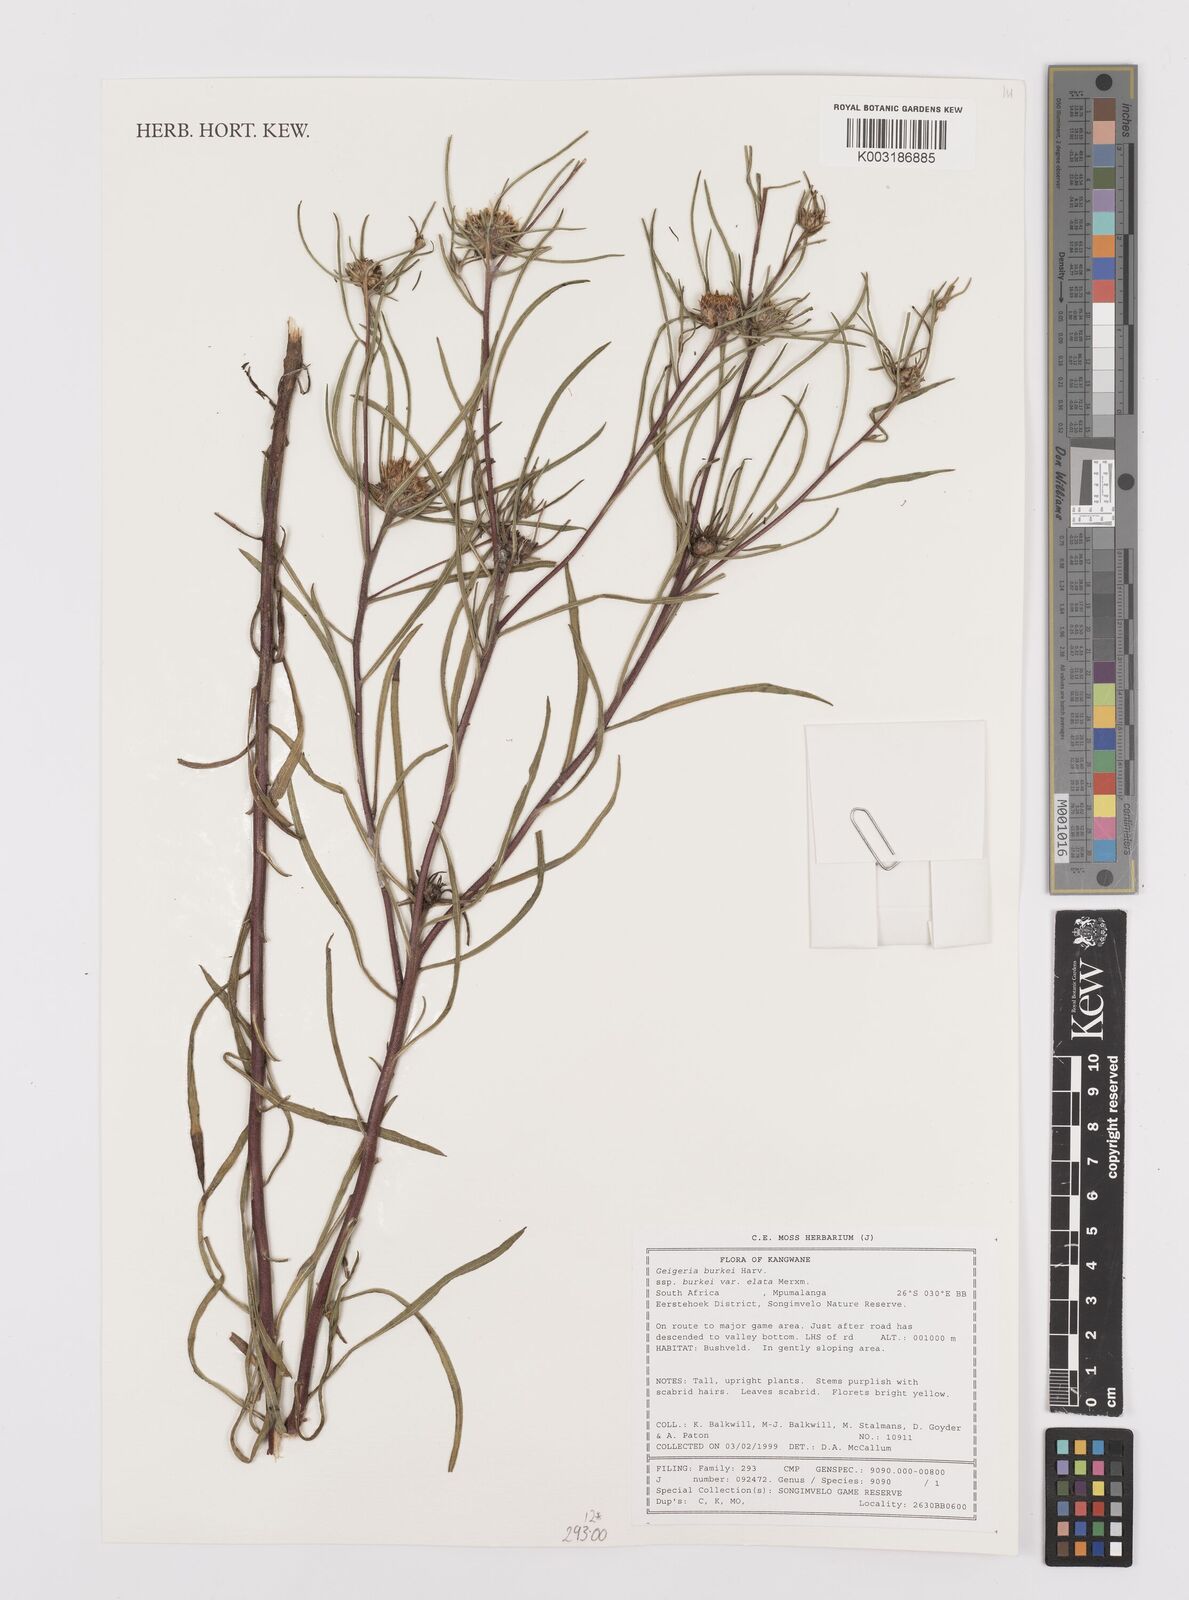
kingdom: Plantae
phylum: Tracheophyta
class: Magnoliopsida
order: Asterales
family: Asteraceae
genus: Geigeria
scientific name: Geigeria burkei
